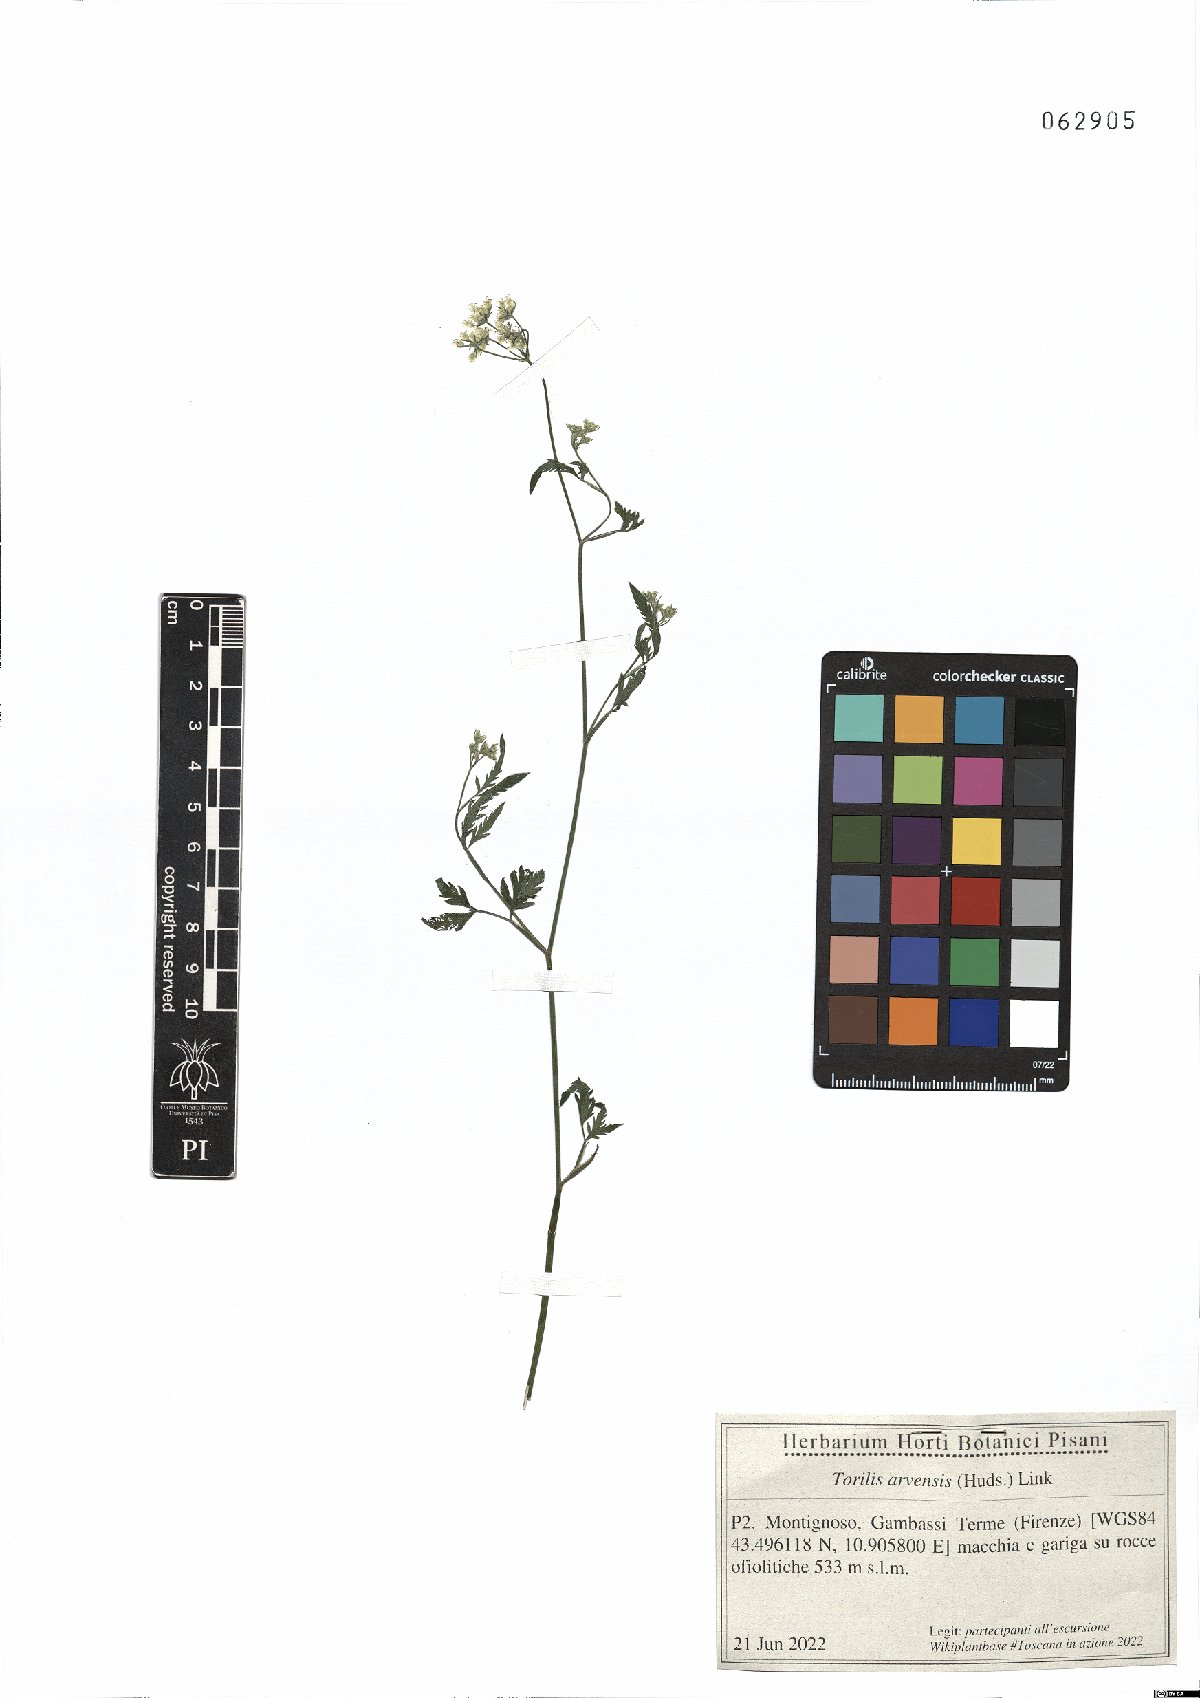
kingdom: Plantae
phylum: Tracheophyta
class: Magnoliopsida
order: Apiales
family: Apiaceae
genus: Torilis
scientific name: Torilis arvensis
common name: Spreading hedge-parsley
